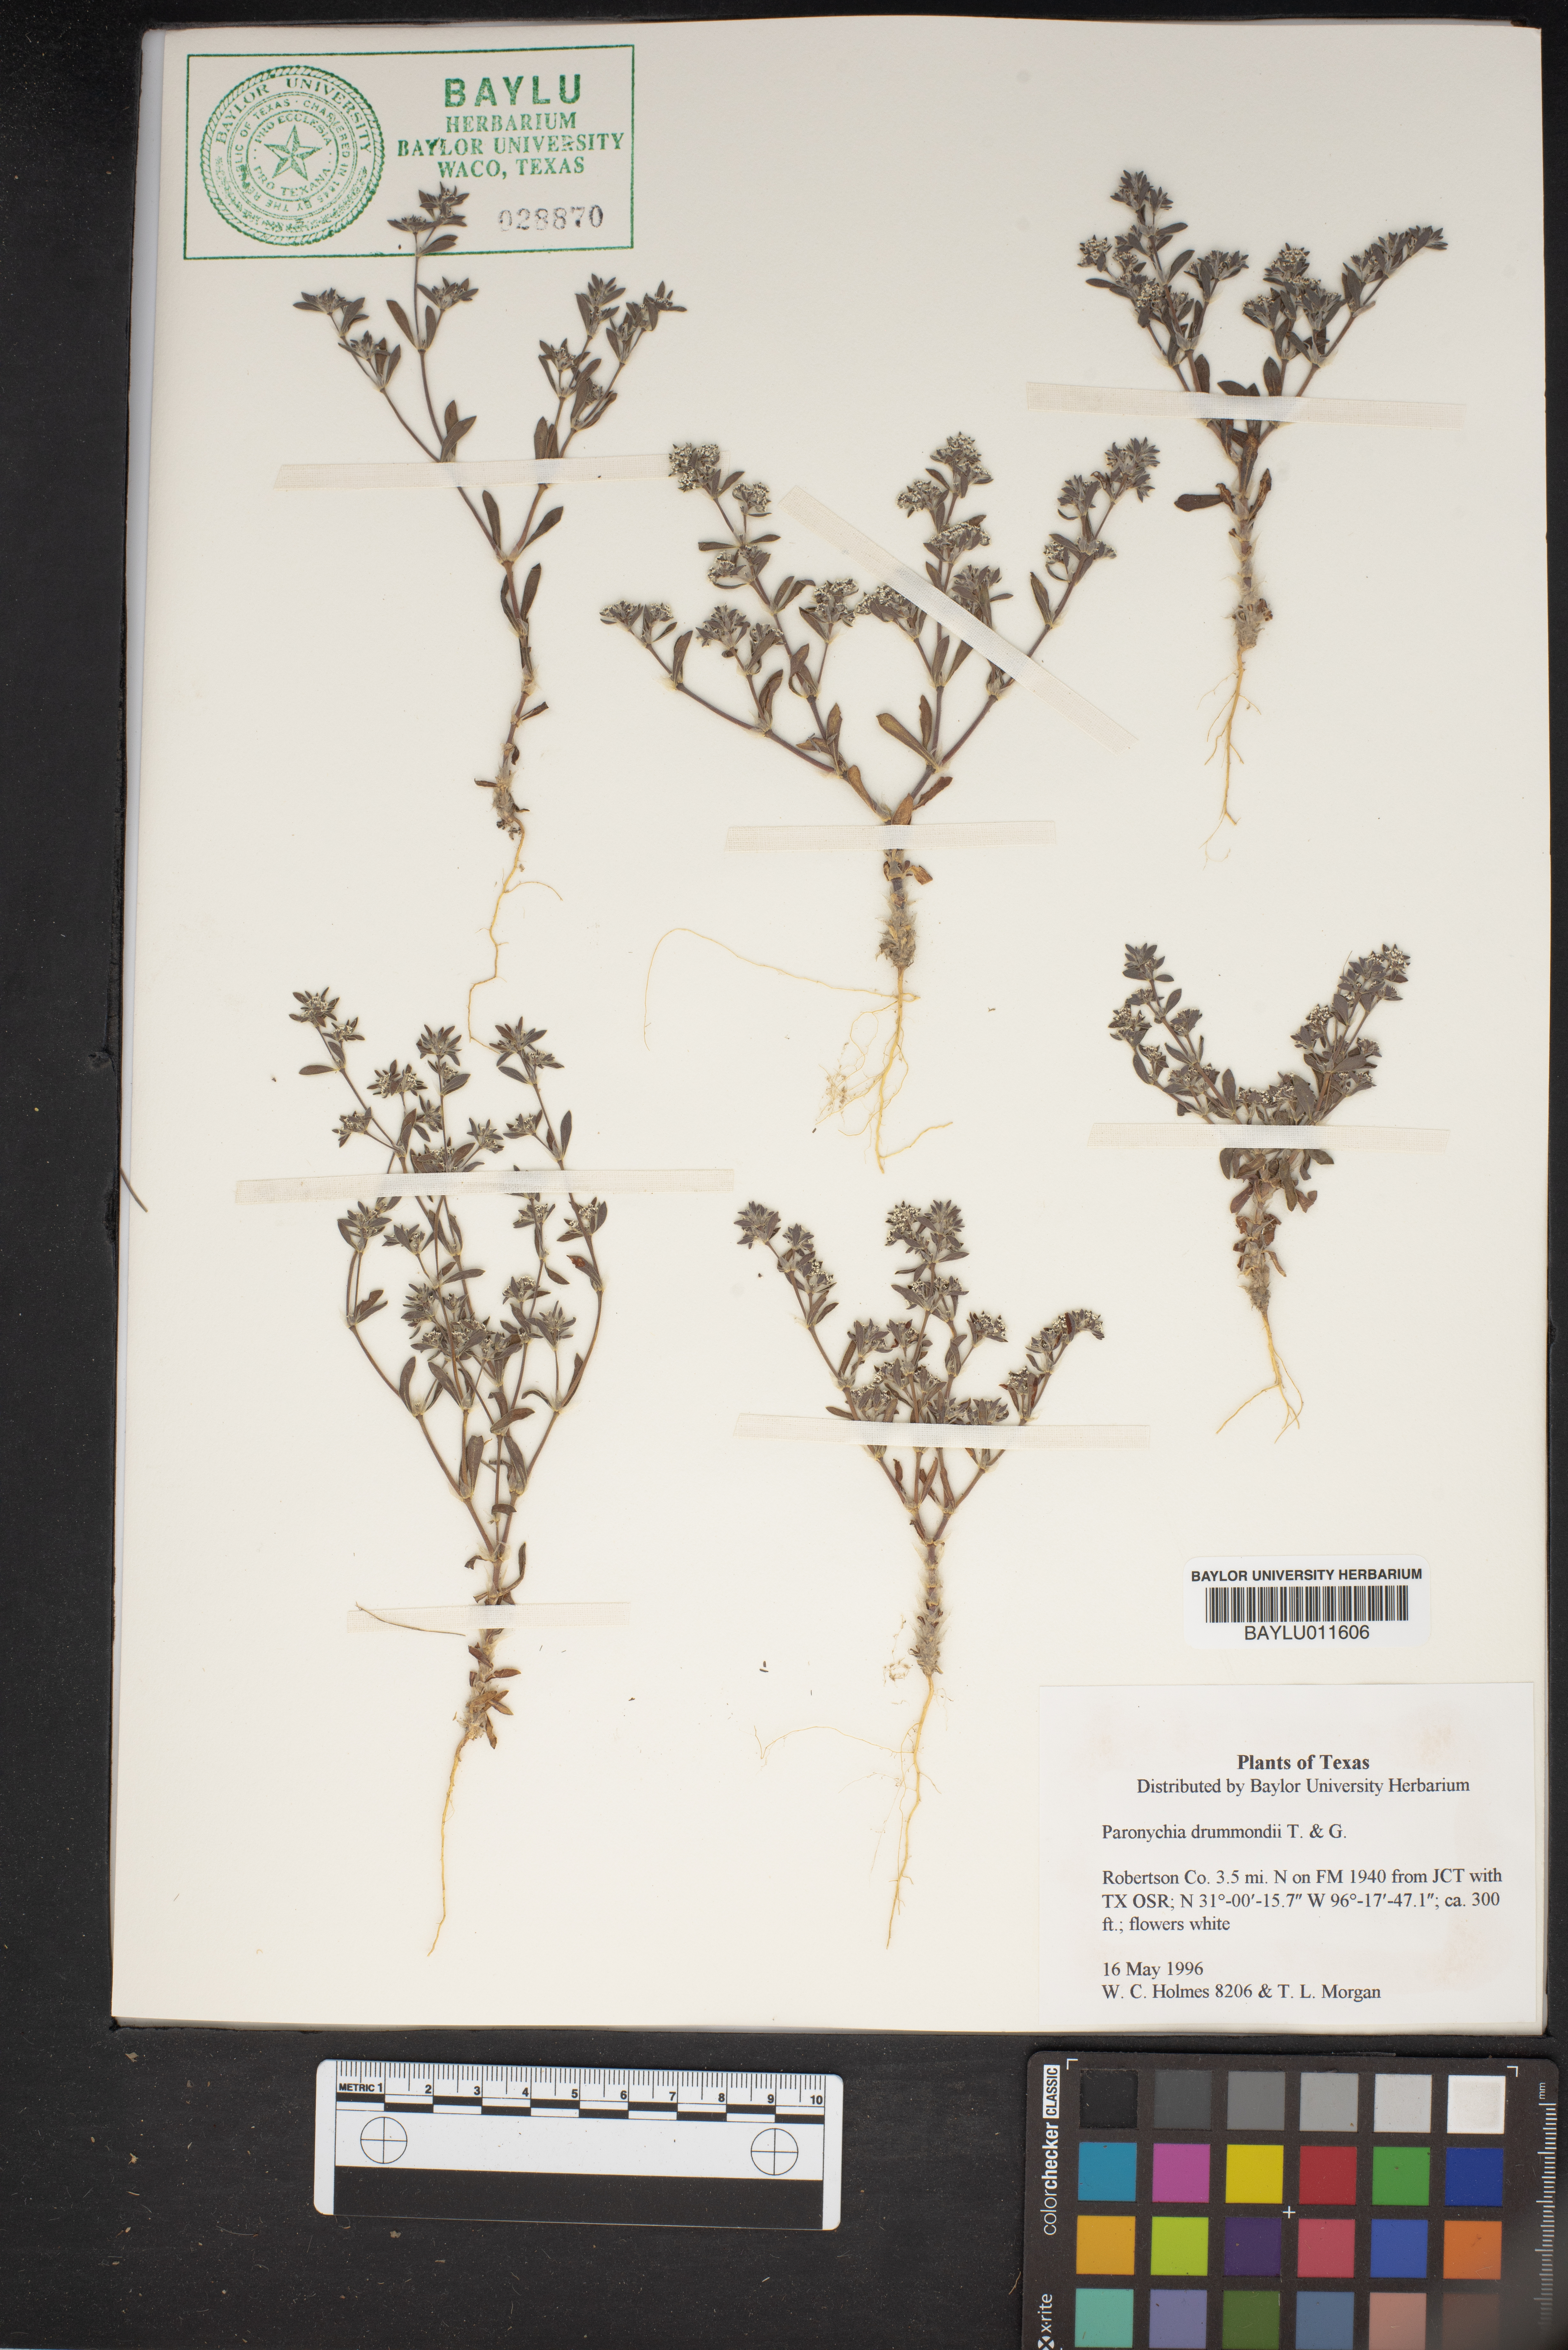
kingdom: Plantae
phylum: Tracheophyta
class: Magnoliopsida
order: Caryophyllales
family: Caryophyllaceae
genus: Paronychia
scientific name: Paronychia drummondii
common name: Drummond's nailwort
